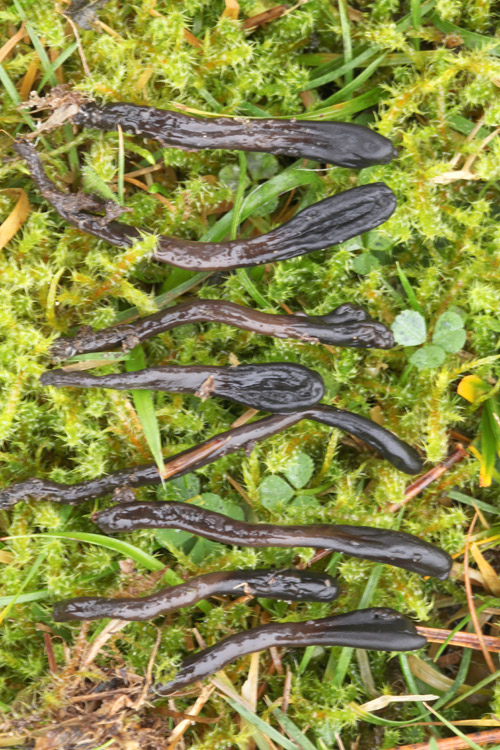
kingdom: Fungi
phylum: Ascomycota
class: Geoglossomycetes
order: Geoglossales
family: Geoglossaceae
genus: Glutinoglossum
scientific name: Glutinoglossum glutinosum
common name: slimet jordtunge
